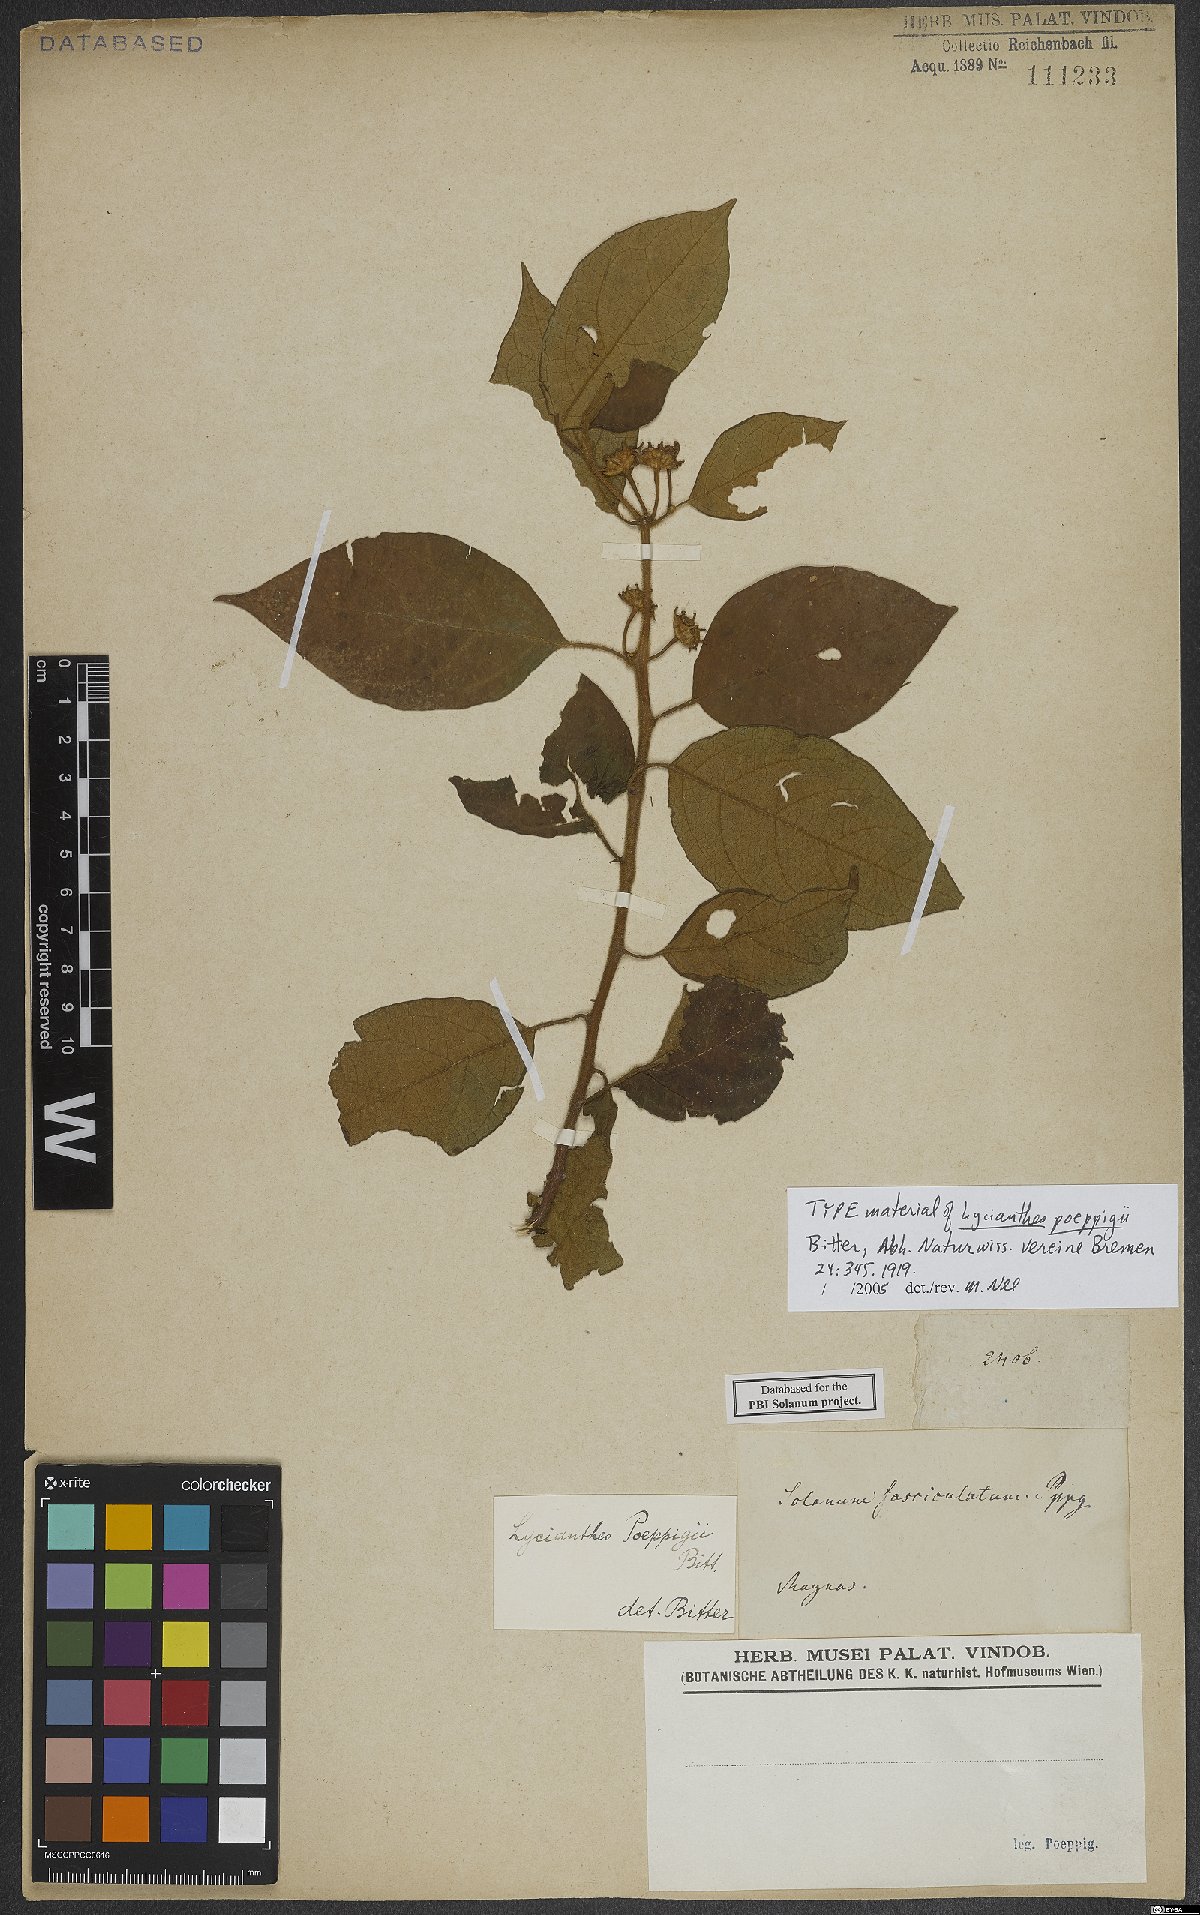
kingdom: Plantae
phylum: Tracheophyta
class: Magnoliopsida
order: Solanales
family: Solanaceae
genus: Lycianthes
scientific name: Lycianthes poeppigii
